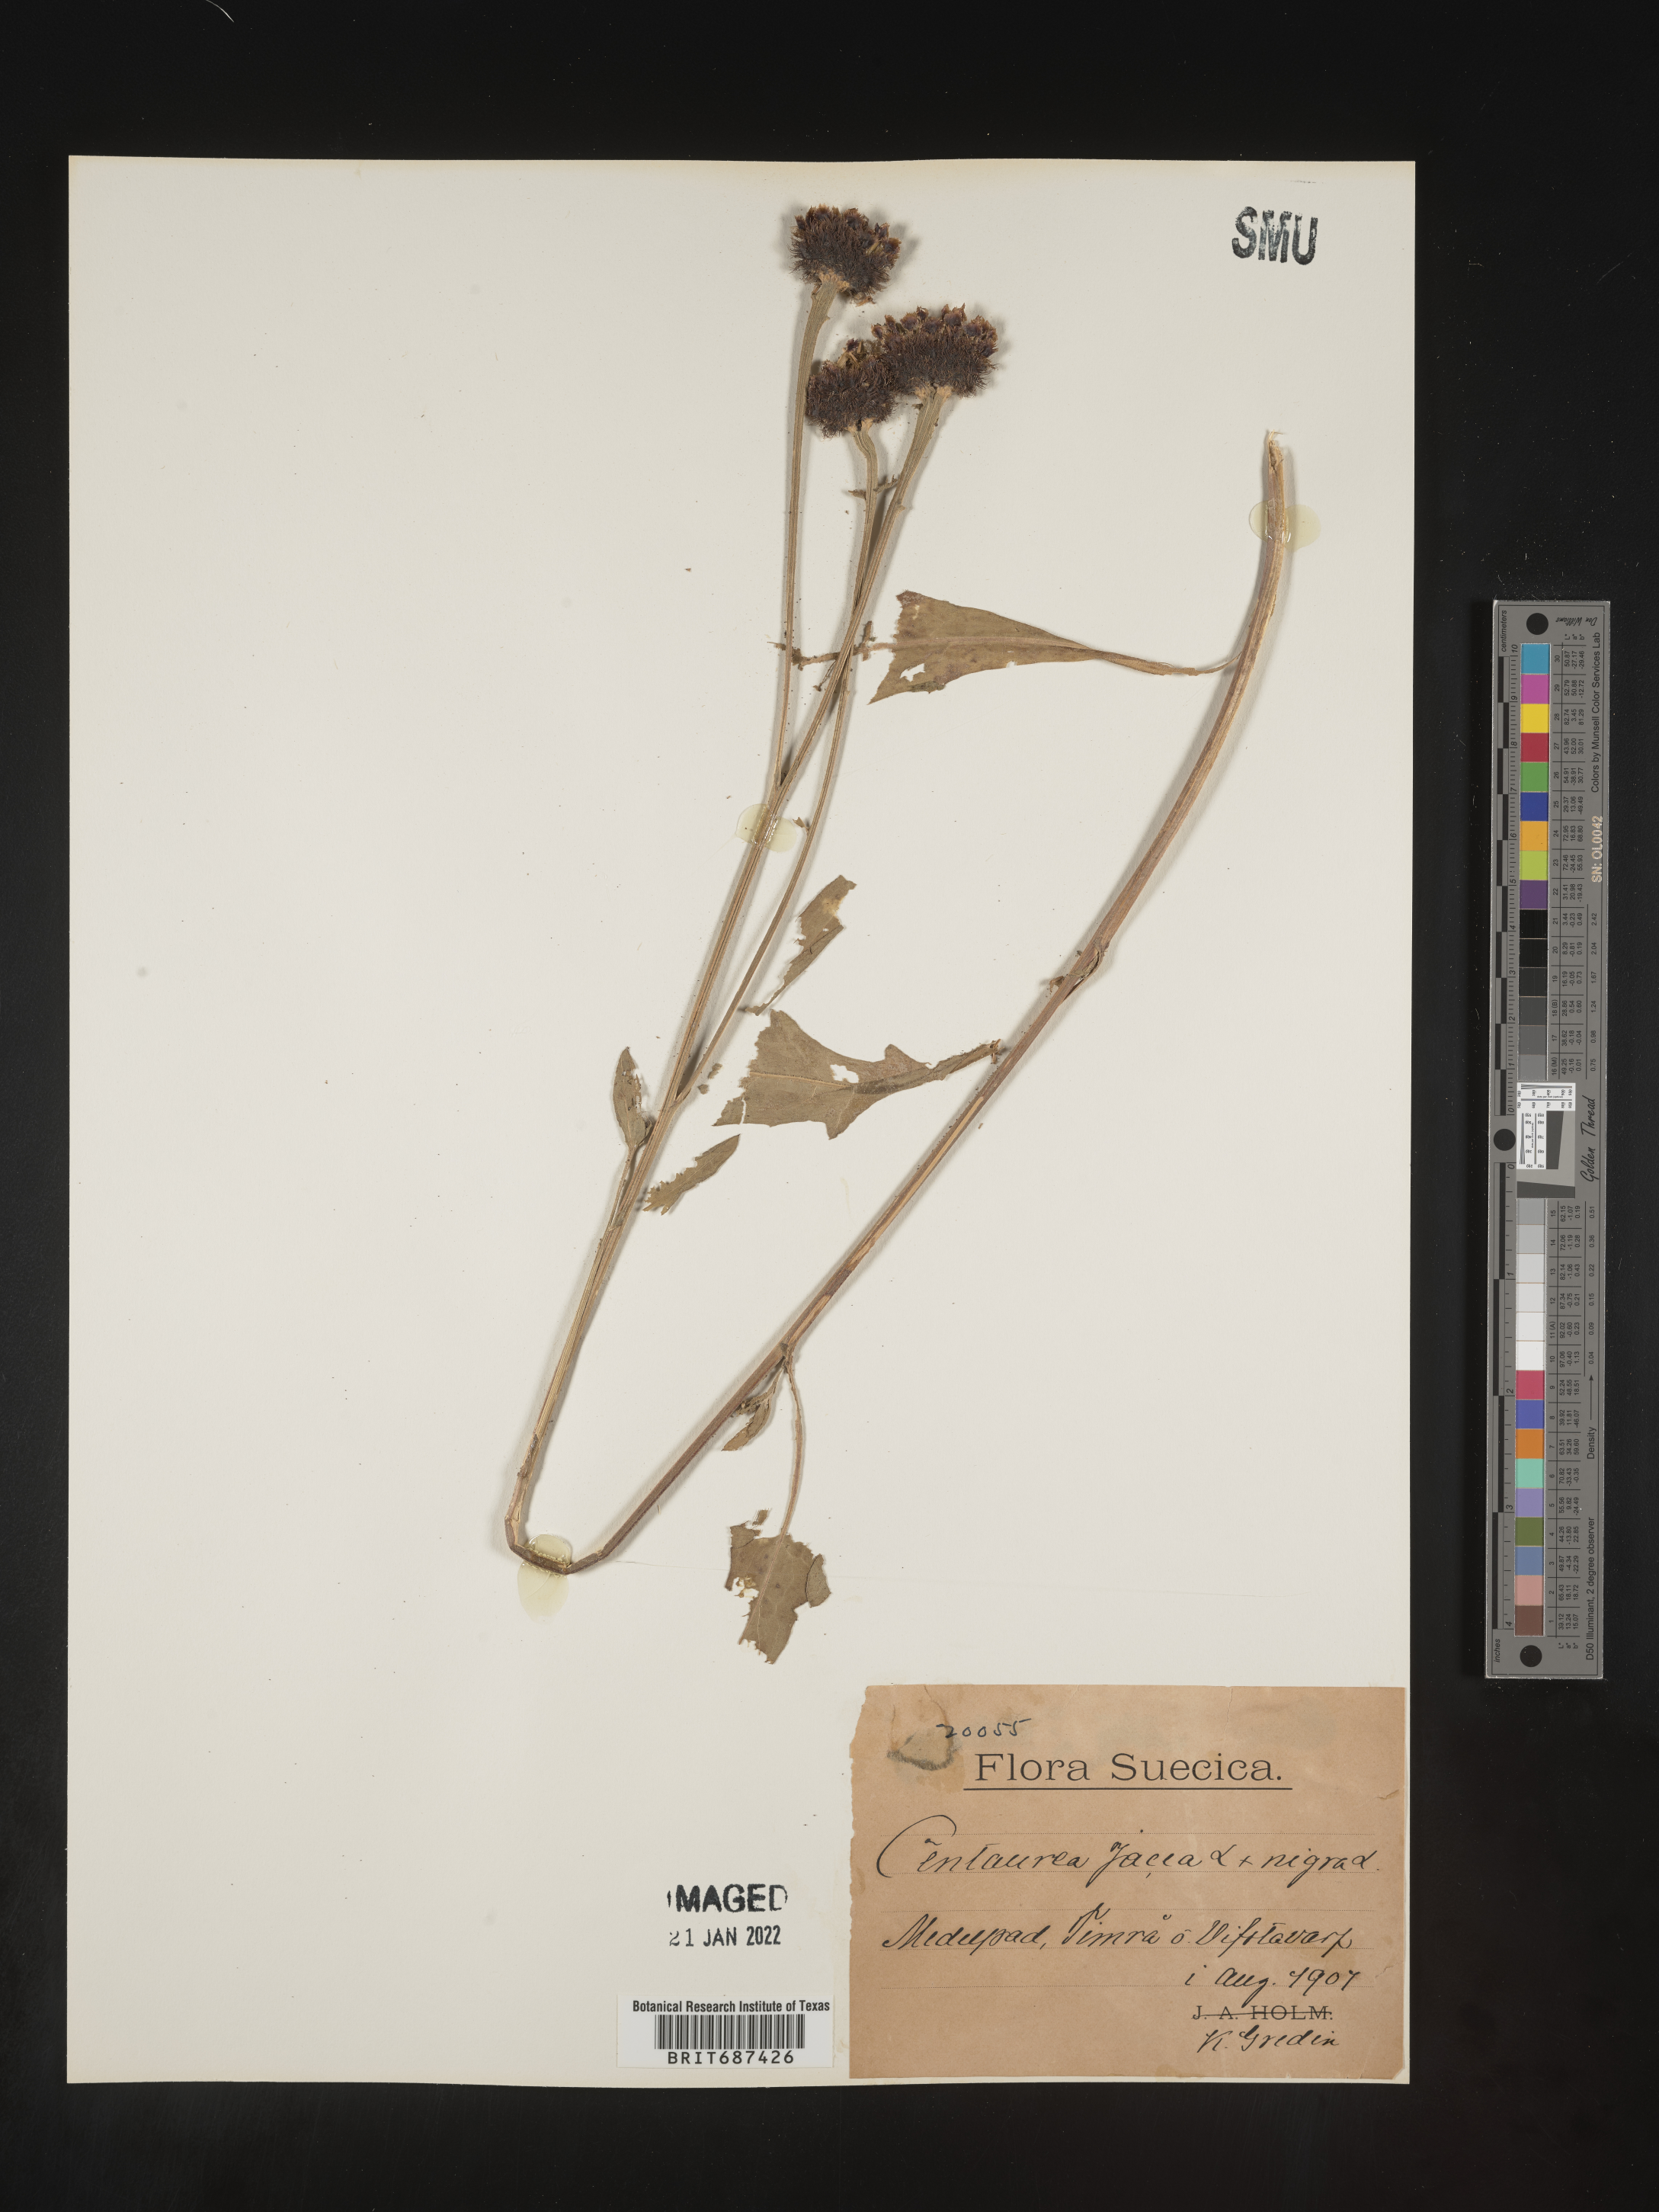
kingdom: Plantae
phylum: Tracheophyta
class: Magnoliopsida
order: Asterales
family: Asteraceae
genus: Centaurea
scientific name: Centaurea jacea
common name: Brown knapweed
